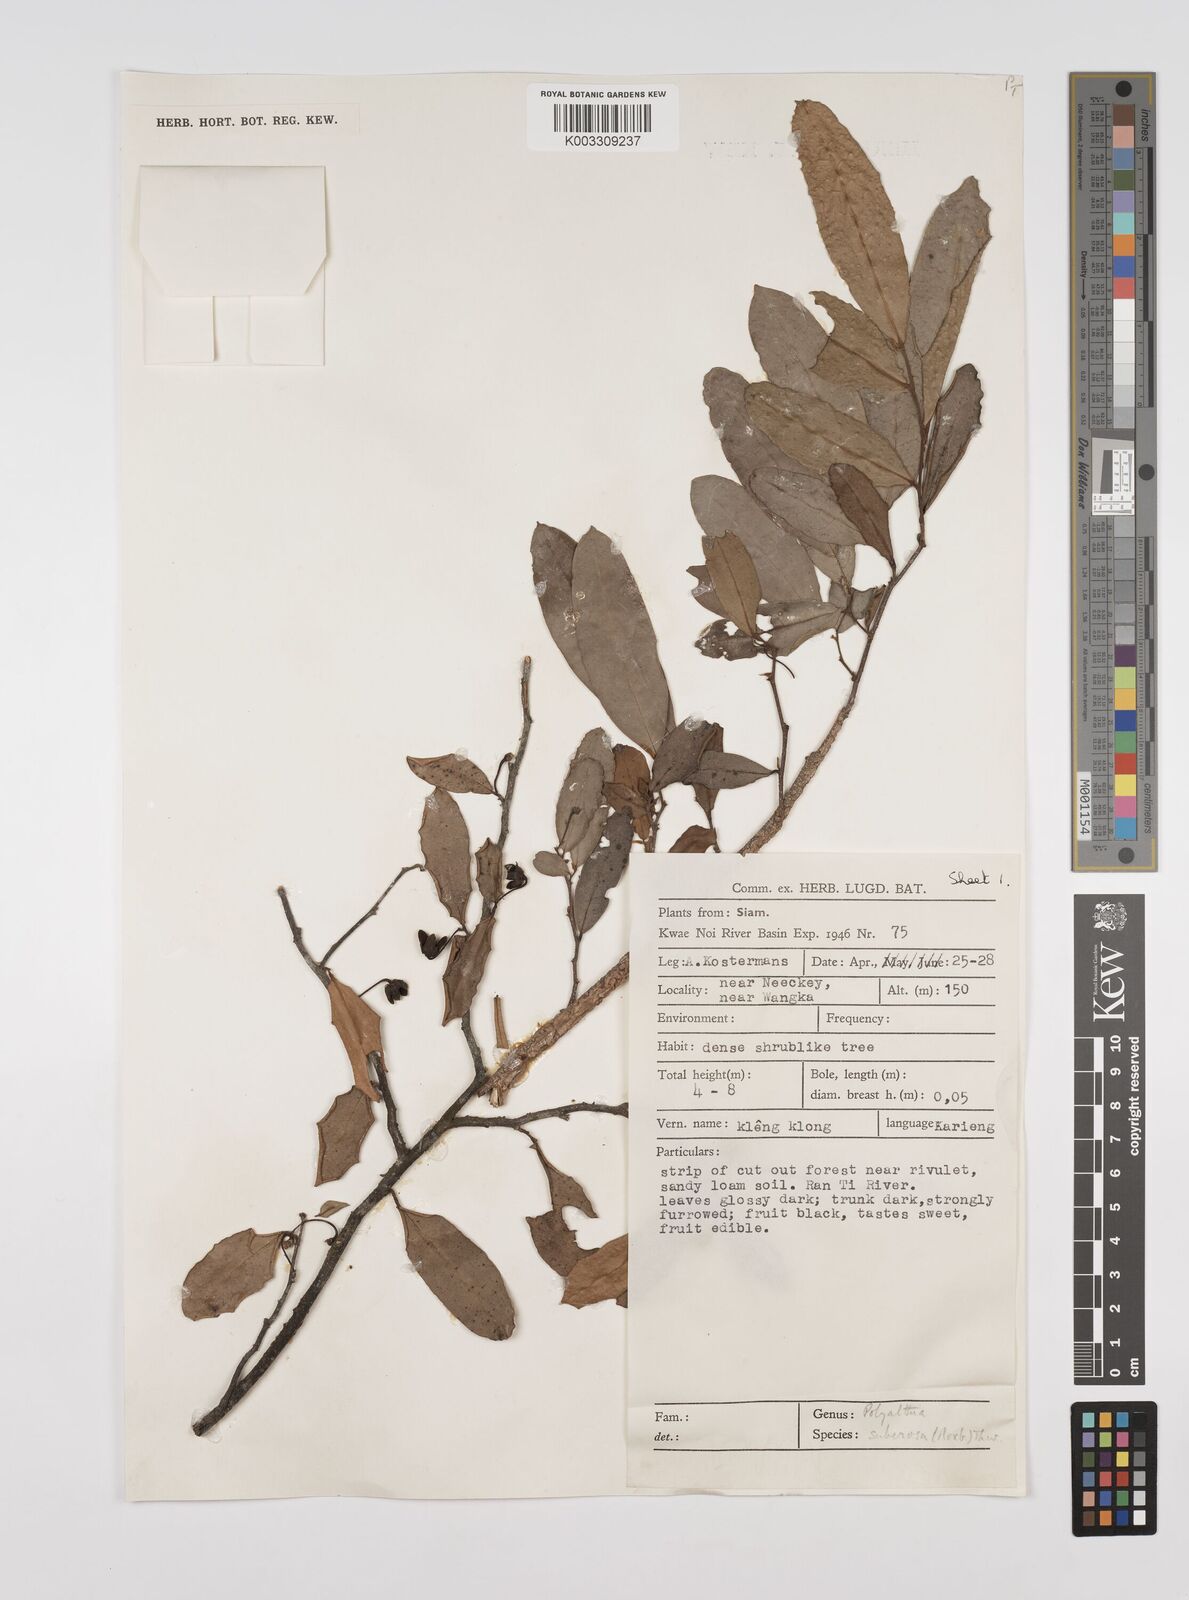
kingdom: Plantae
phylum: Tracheophyta
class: Magnoliopsida
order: Magnoliales
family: Annonaceae
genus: Polyalthia
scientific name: Polyalthia suberosa
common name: Polyalthia plant
